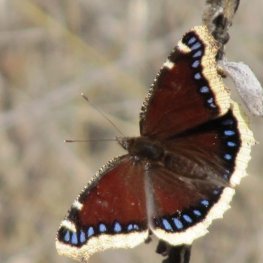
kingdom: Animalia
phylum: Arthropoda
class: Insecta
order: Lepidoptera
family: Nymphalidae
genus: Nymphalis
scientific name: Nymphalis antiopa
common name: Mourning Cloak
